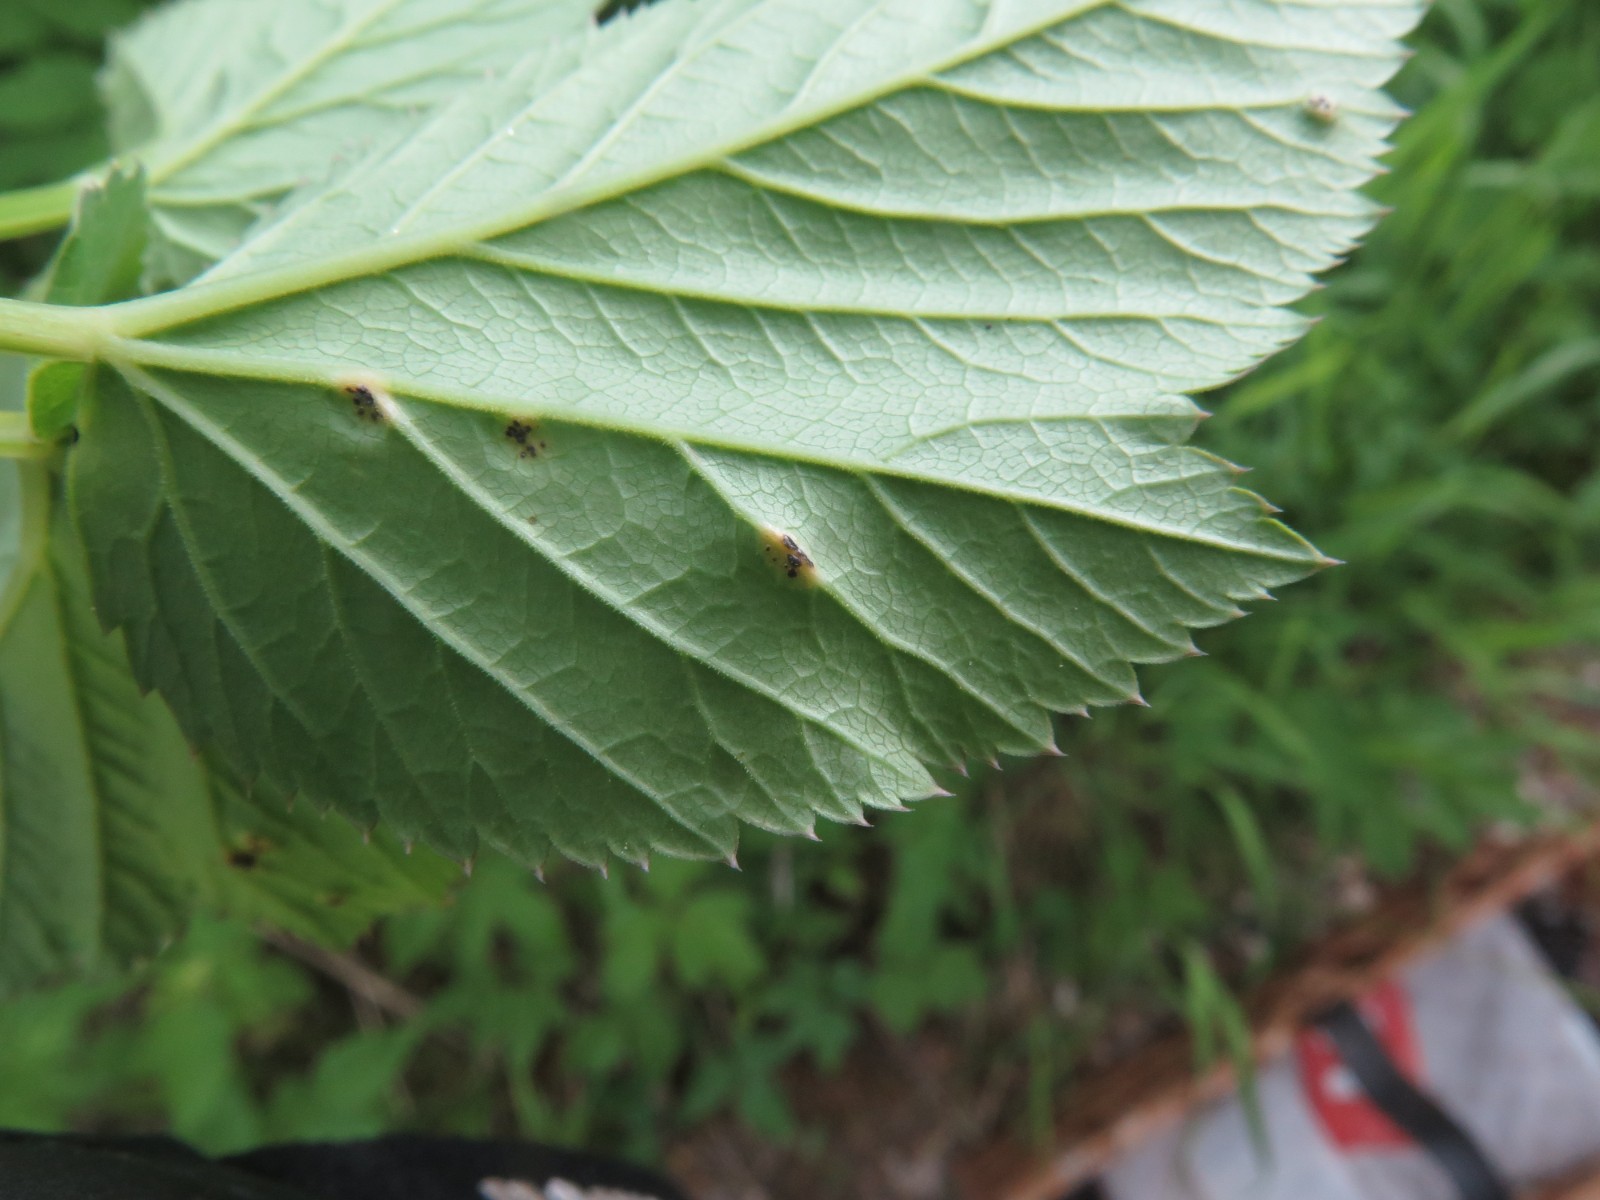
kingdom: Fungi
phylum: Basidiomycota
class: Pucciniomycetes
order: Pucciniales
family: Pucciniaceae
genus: Puccinia
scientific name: Puccinia
